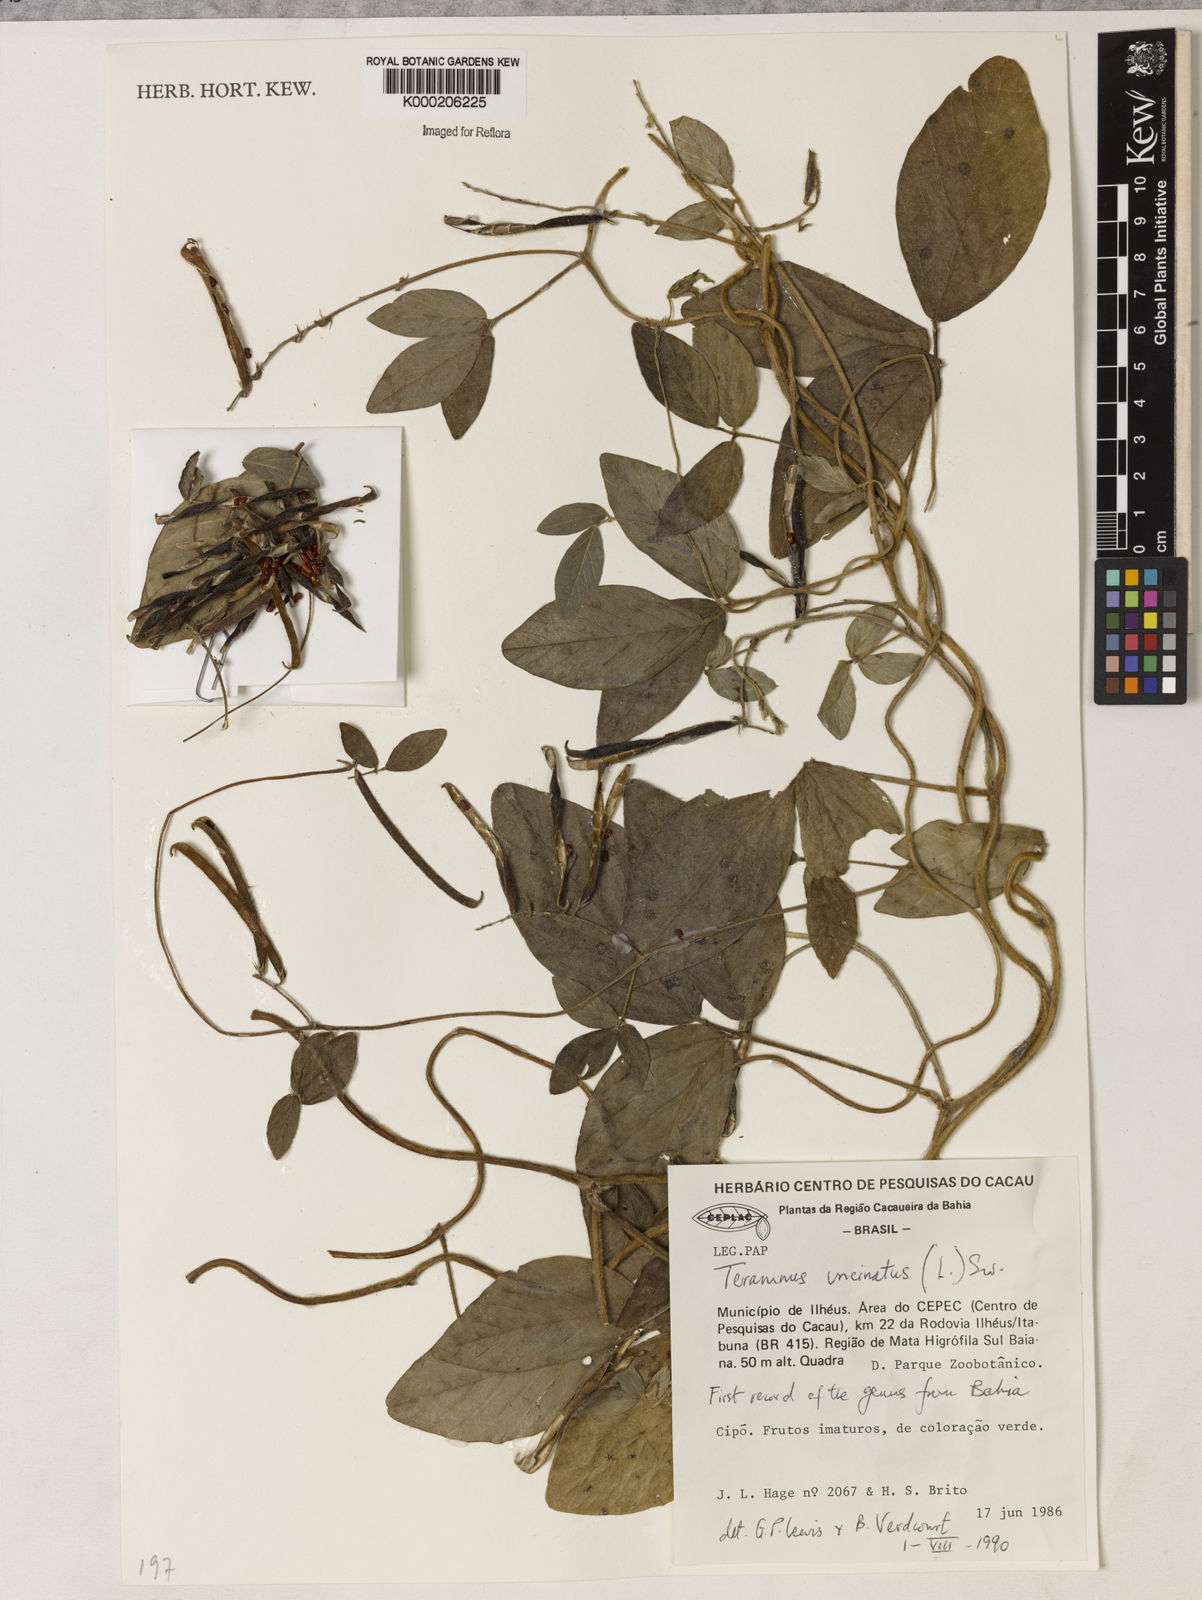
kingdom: Plantae
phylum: Tracheophyta
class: Magnoliopsida
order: Fabales
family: Fabaceae
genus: Teramnus
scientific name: Teramnus uncinatus
